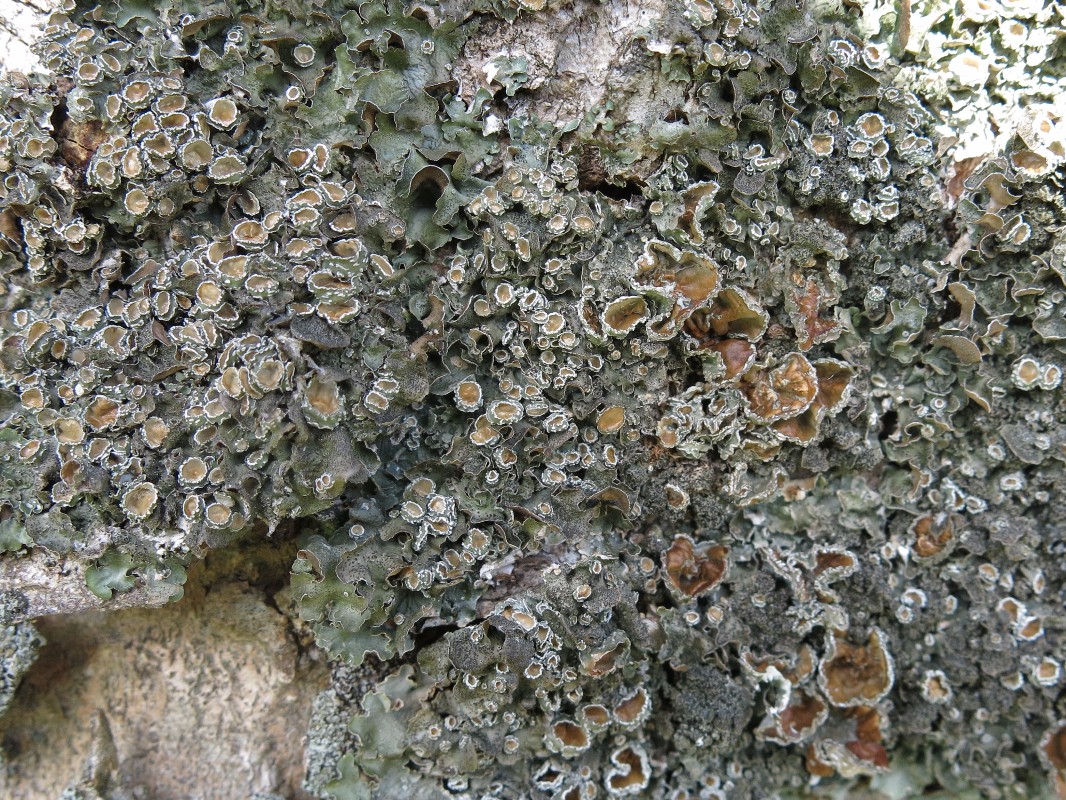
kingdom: Fungi
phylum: Ascomycota
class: Lecanoromycetes
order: Lecanorales
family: Parmeliaceae
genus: Pleurosticta
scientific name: Pleurosticta acetabulum
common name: stor skållav
